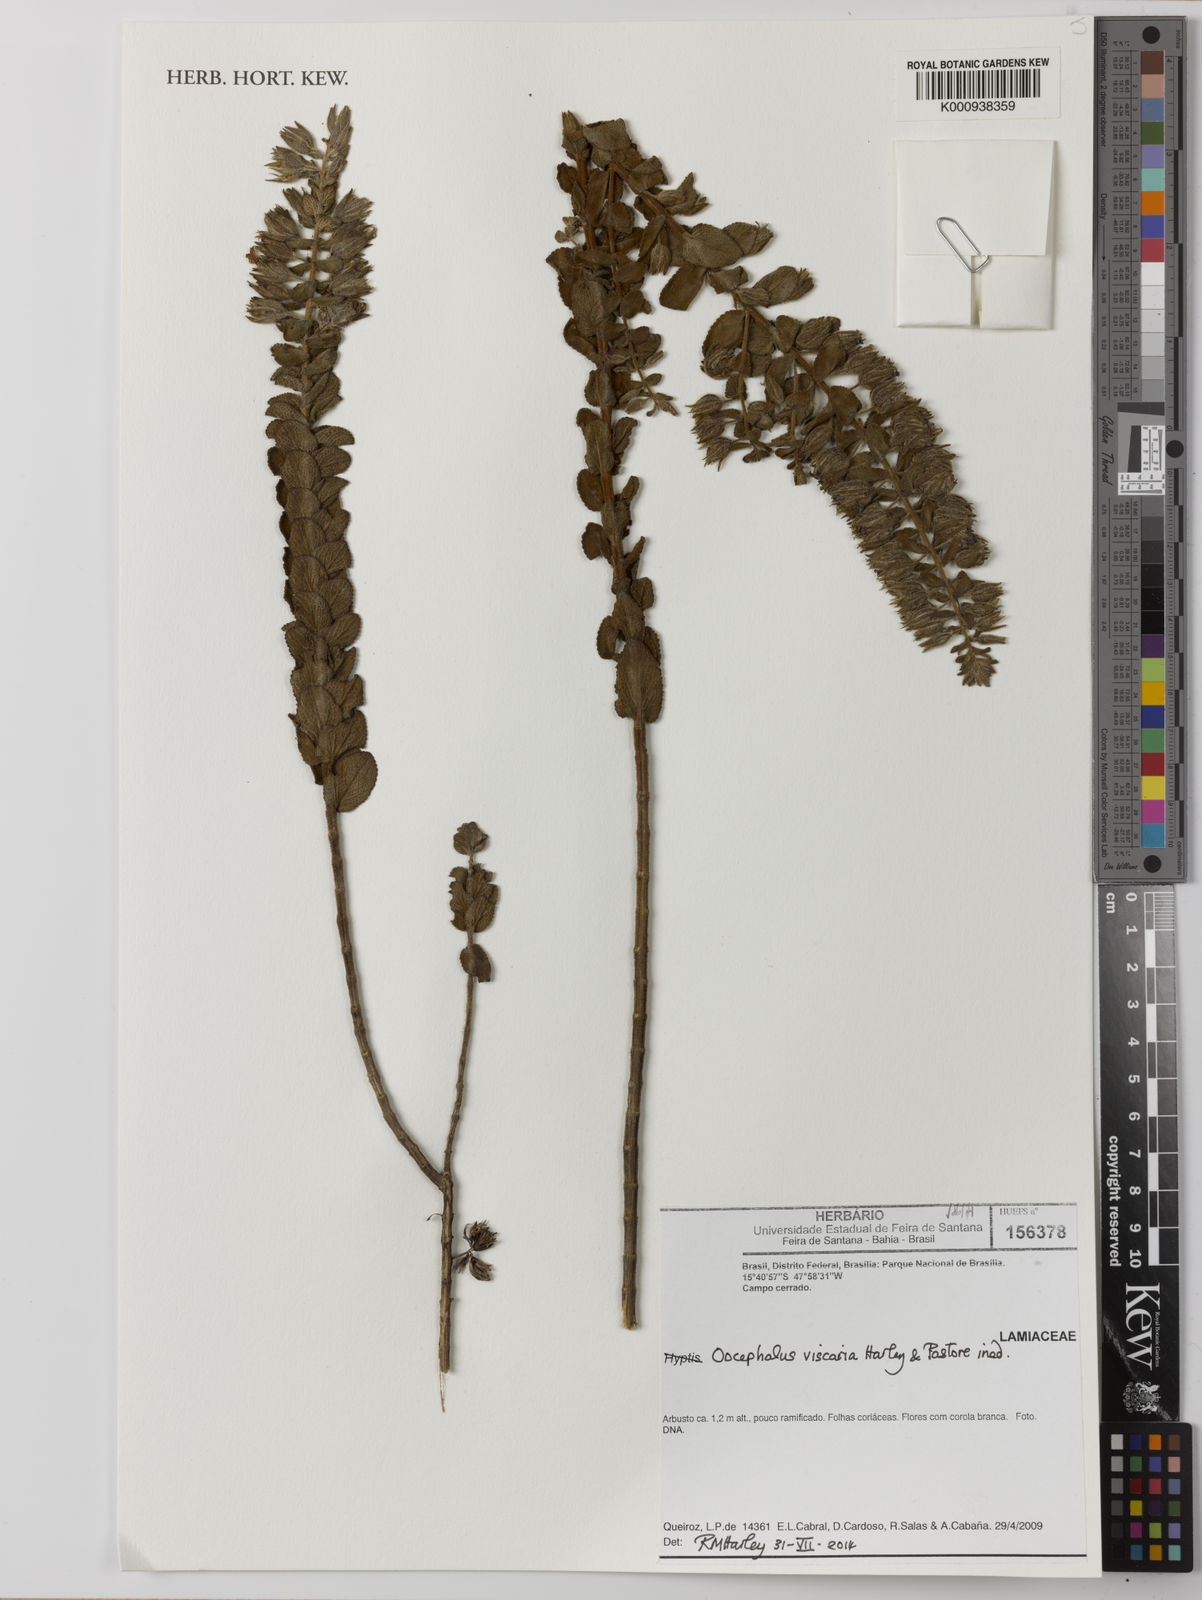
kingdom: Plantae
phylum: Tracheophyta
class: Magnoliopsida
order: Lamiales
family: Lamiaceae
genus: Oocephalus
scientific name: Oocephalus
